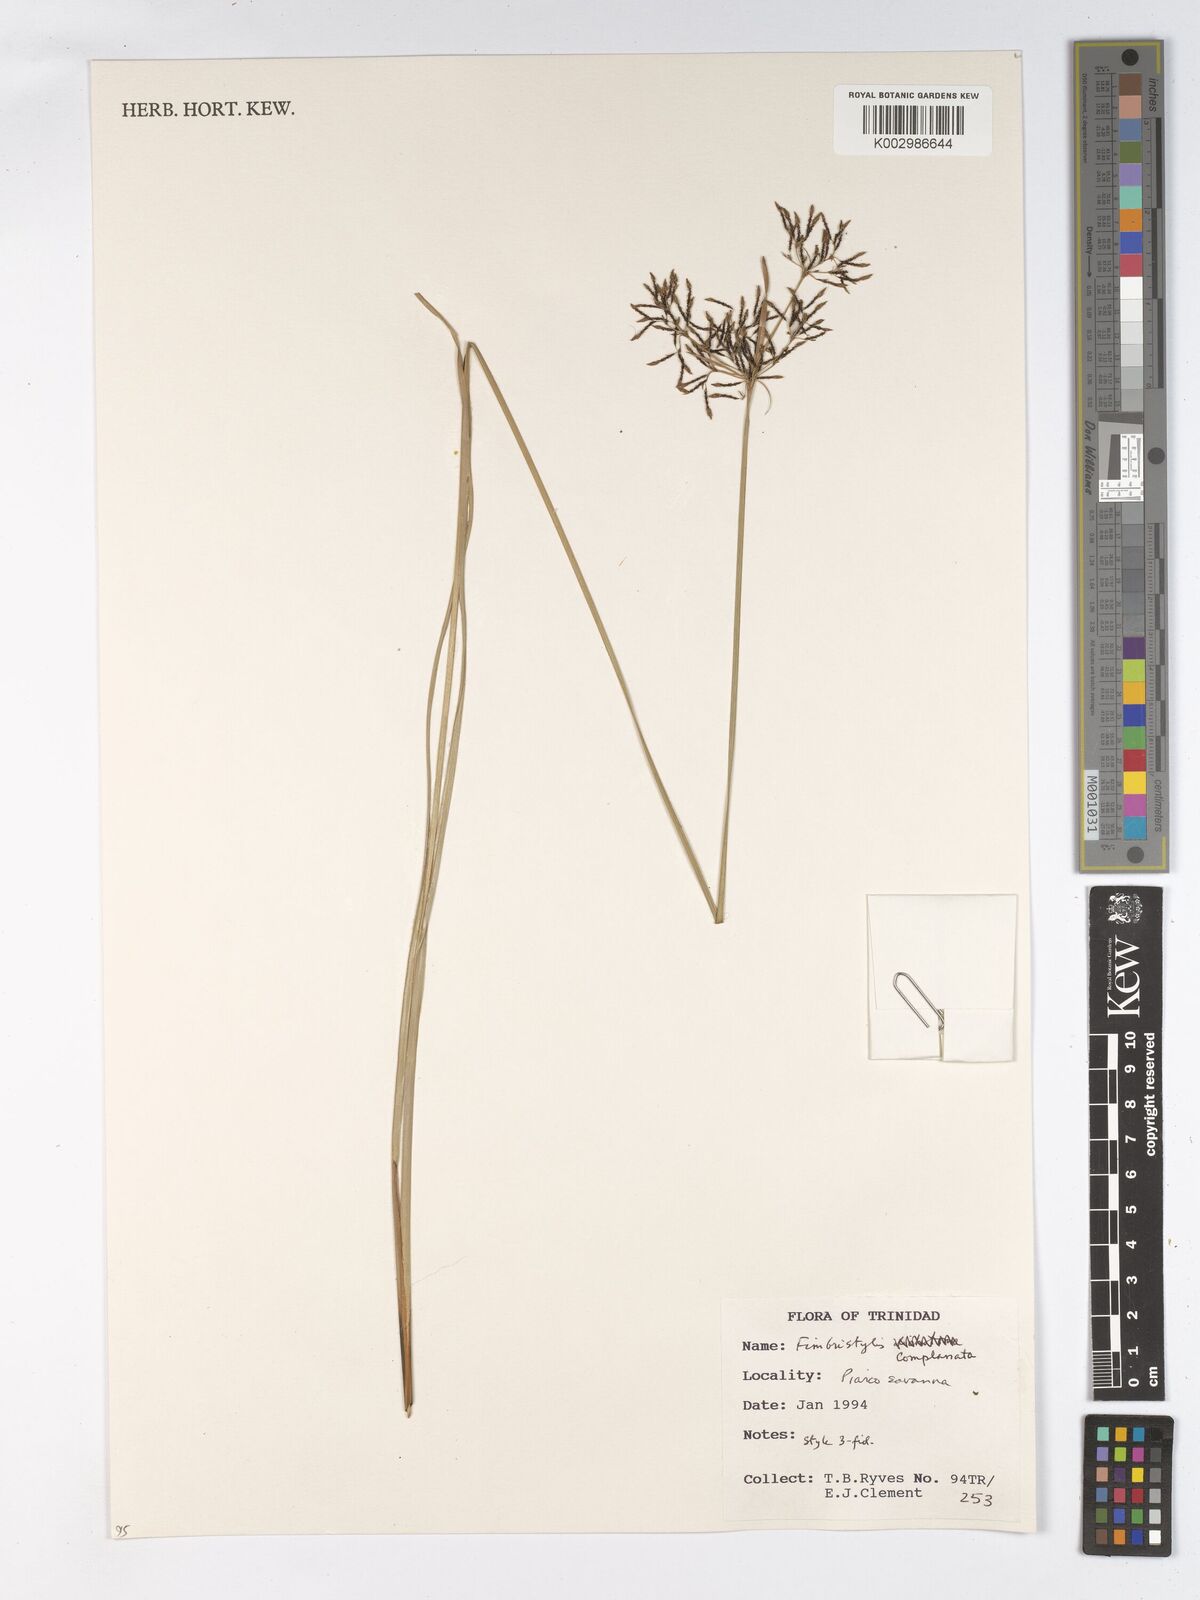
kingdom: Plantae
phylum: Tracheophyta
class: Liliopsida
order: Poales
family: Cyperaceae
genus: Fimbristylis
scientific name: Fimbristylis complanata
